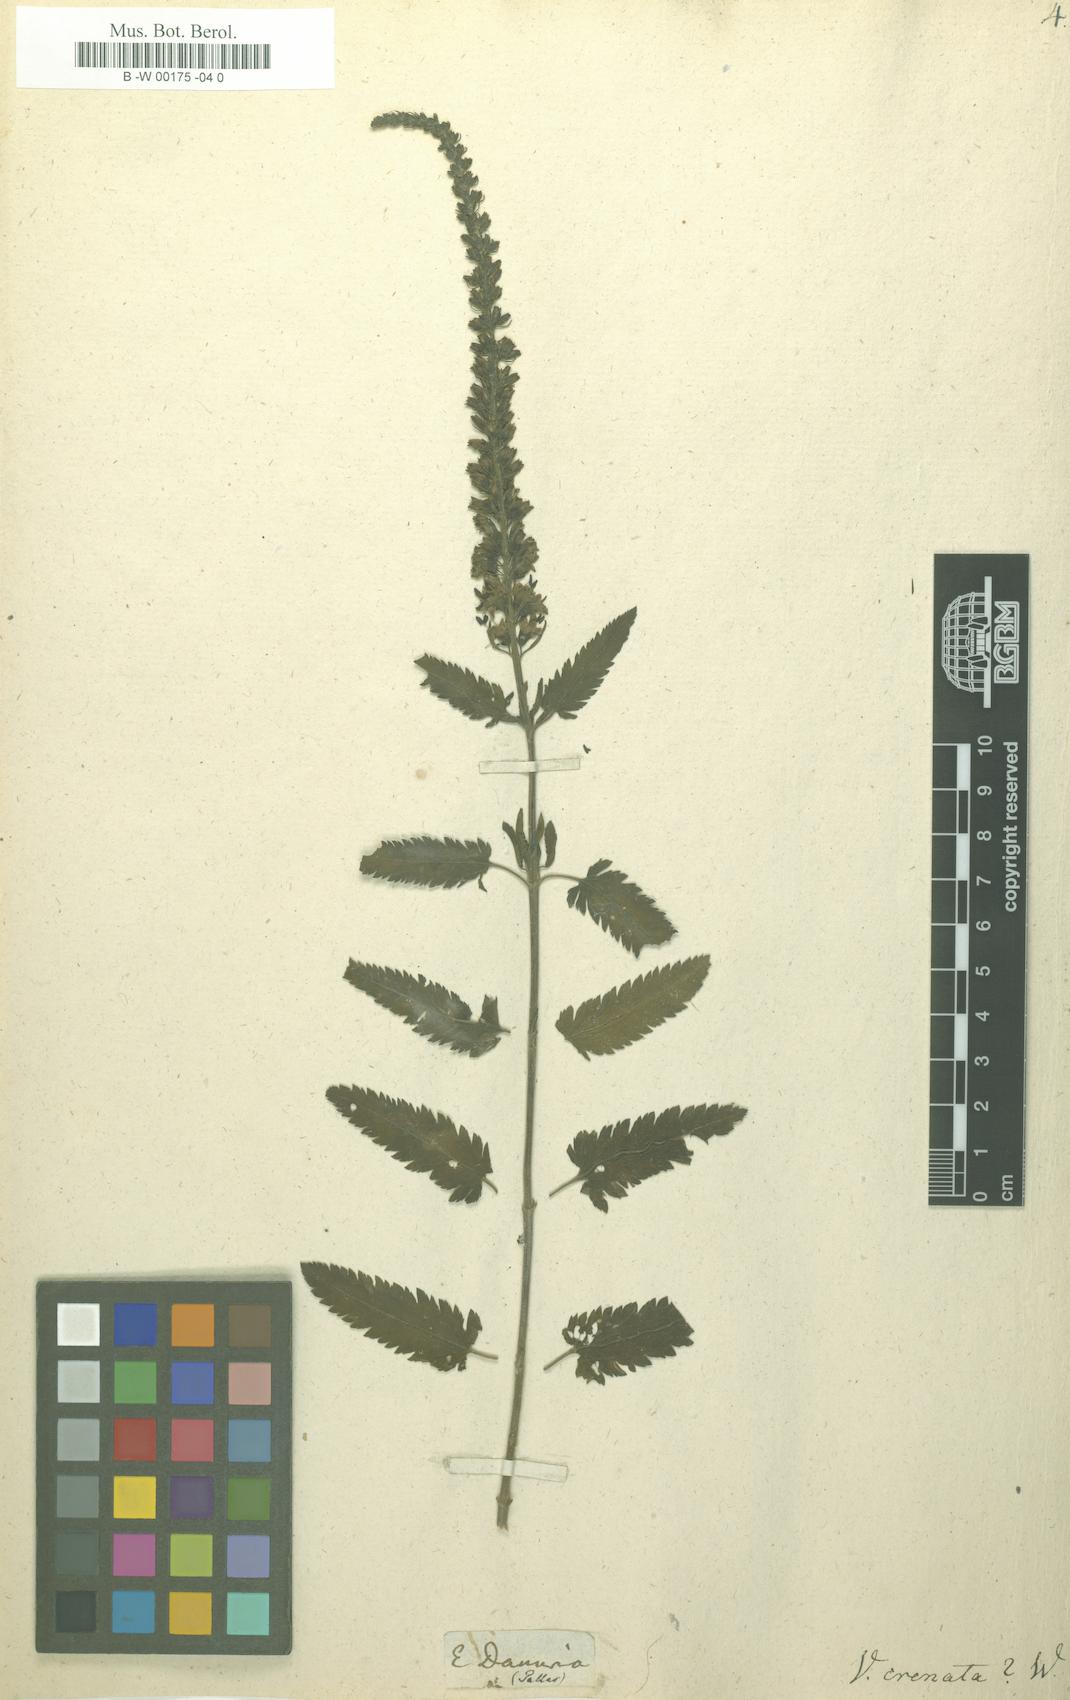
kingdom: Plantae
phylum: Tracheophyta
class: Magnoliopsida
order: Lamiales
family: Plantaginaceae
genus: Veronica
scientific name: Veronica crenata
